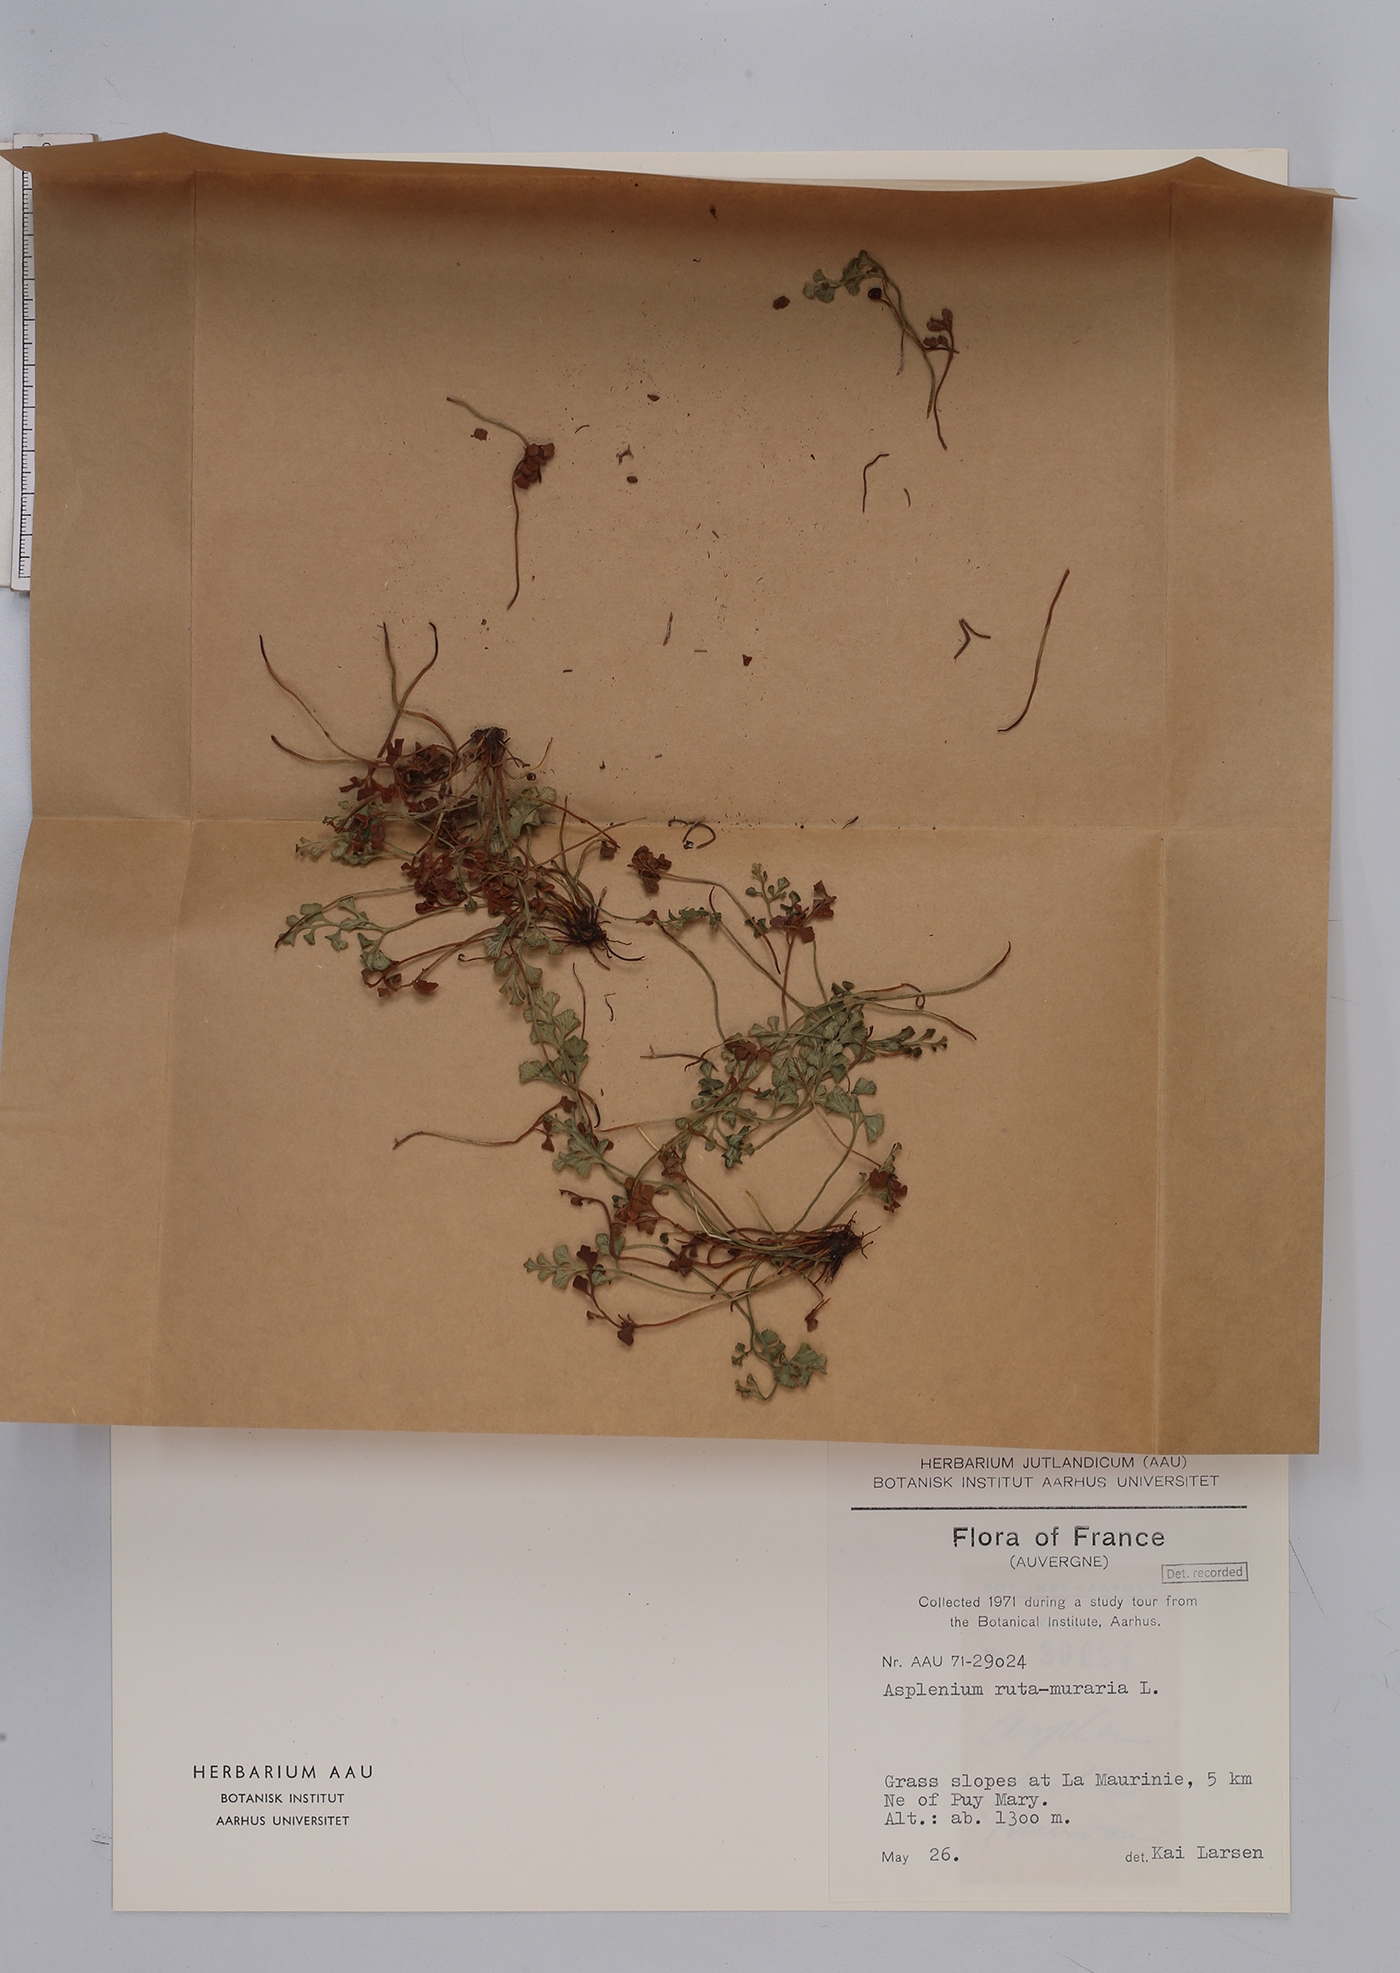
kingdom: Plantae
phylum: Tracheophyta
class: Polypodiopsida
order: Polypodiales
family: Aspleniaceae
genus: Asplenium
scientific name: Asplenium ruta-muraria
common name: Wall-rue
